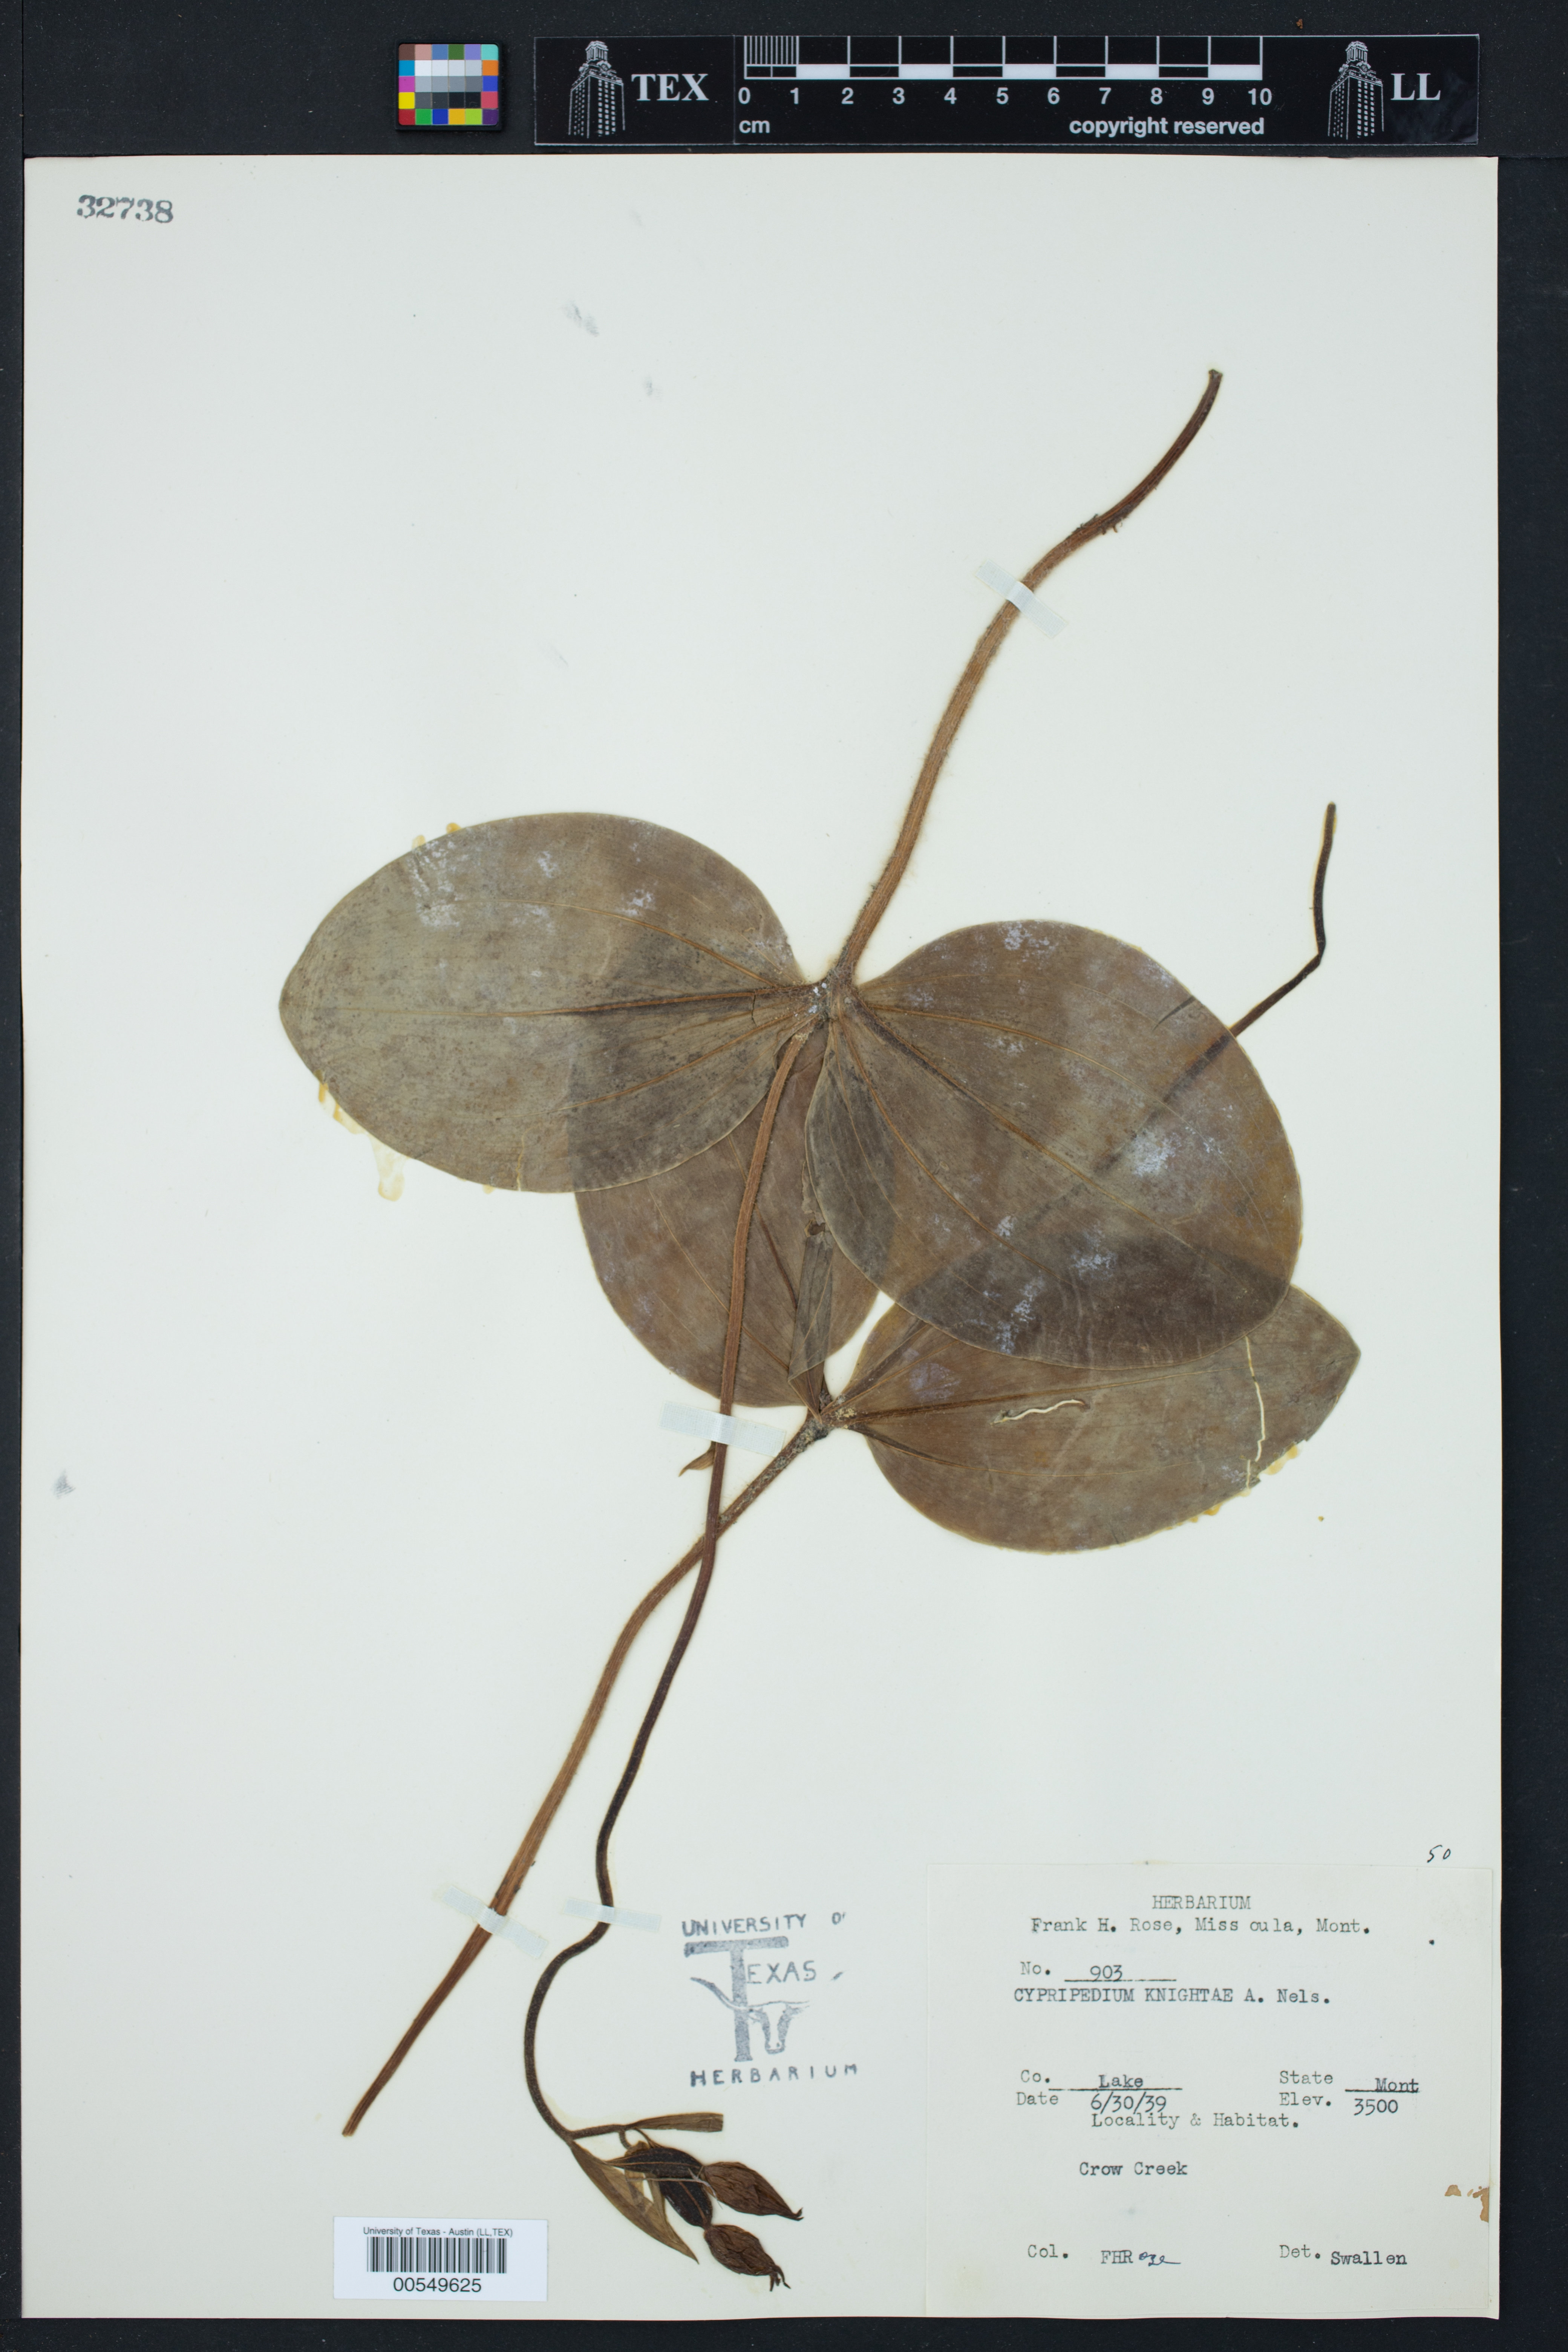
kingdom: Plantae
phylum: Tracheophyta
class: Liliopsida
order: Asparagales
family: Orchidaceae
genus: Cypripedium
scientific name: Cypripedium fasciculatum
